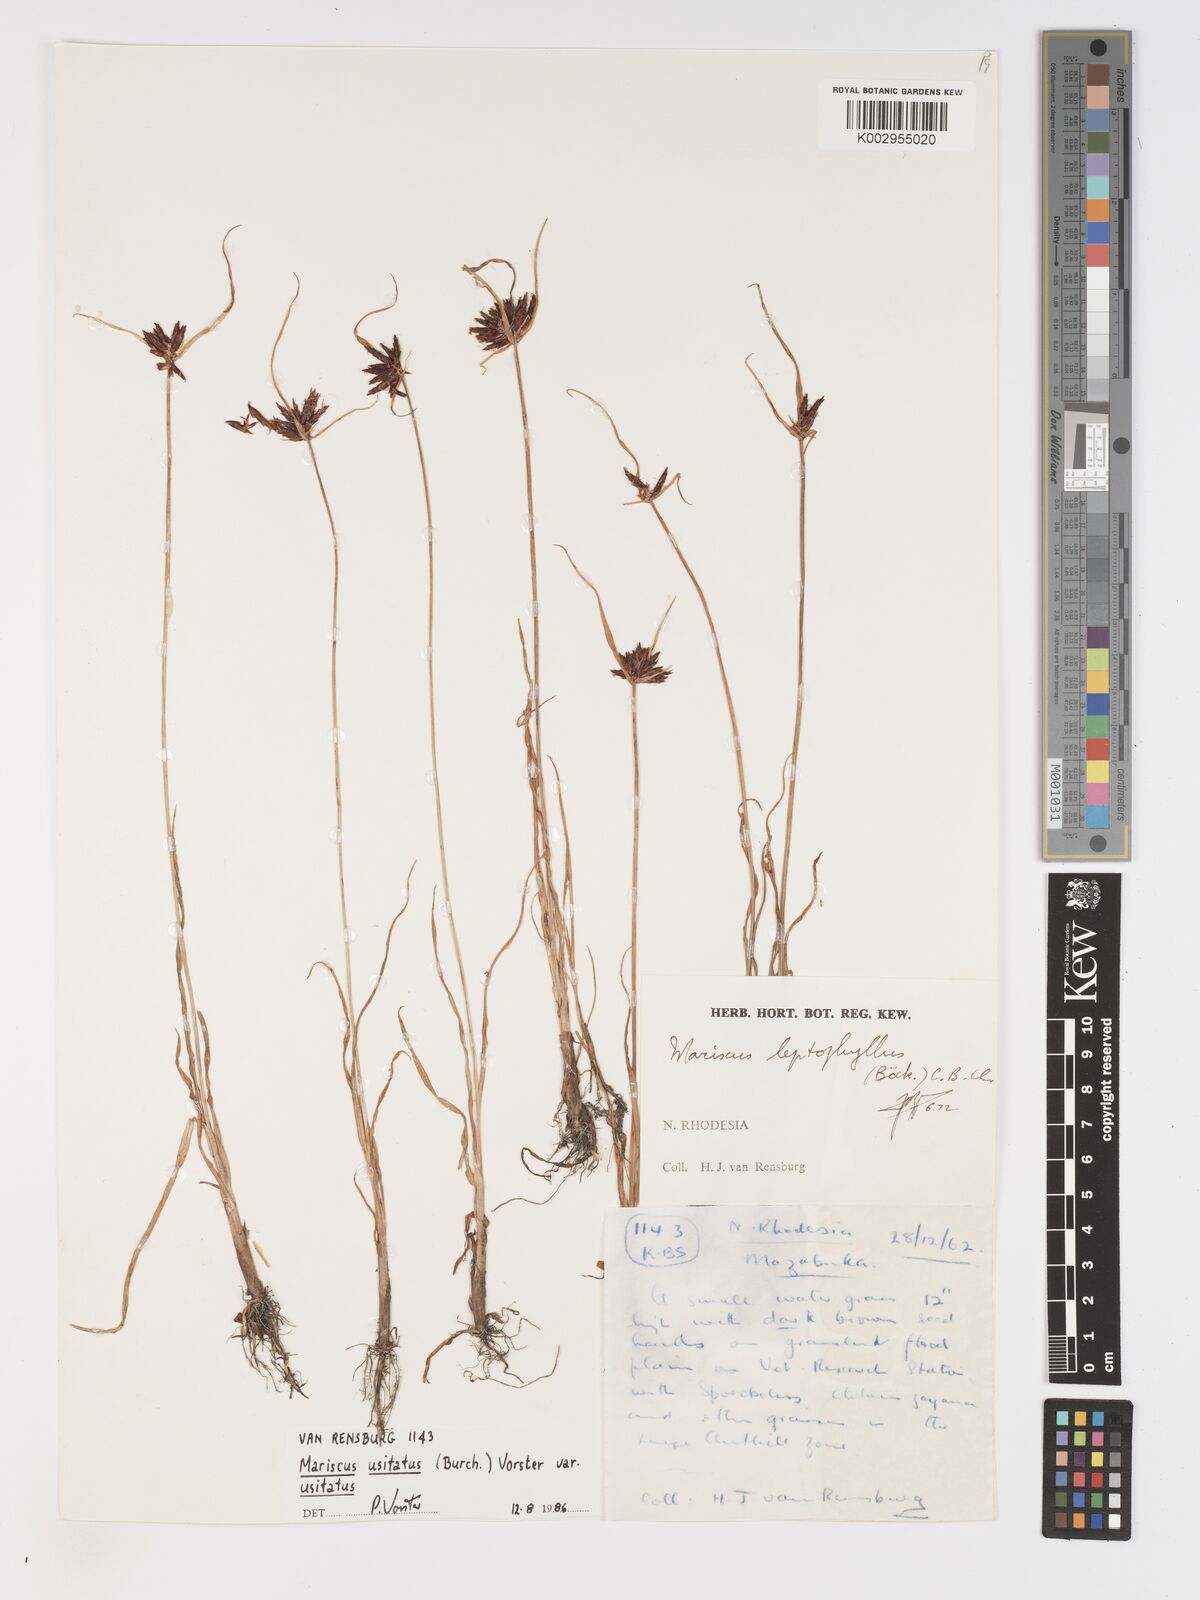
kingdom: Plantae
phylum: Tracheophyta
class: Liliopsida
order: Poales
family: Cyperaceae
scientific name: Cyperaceae
